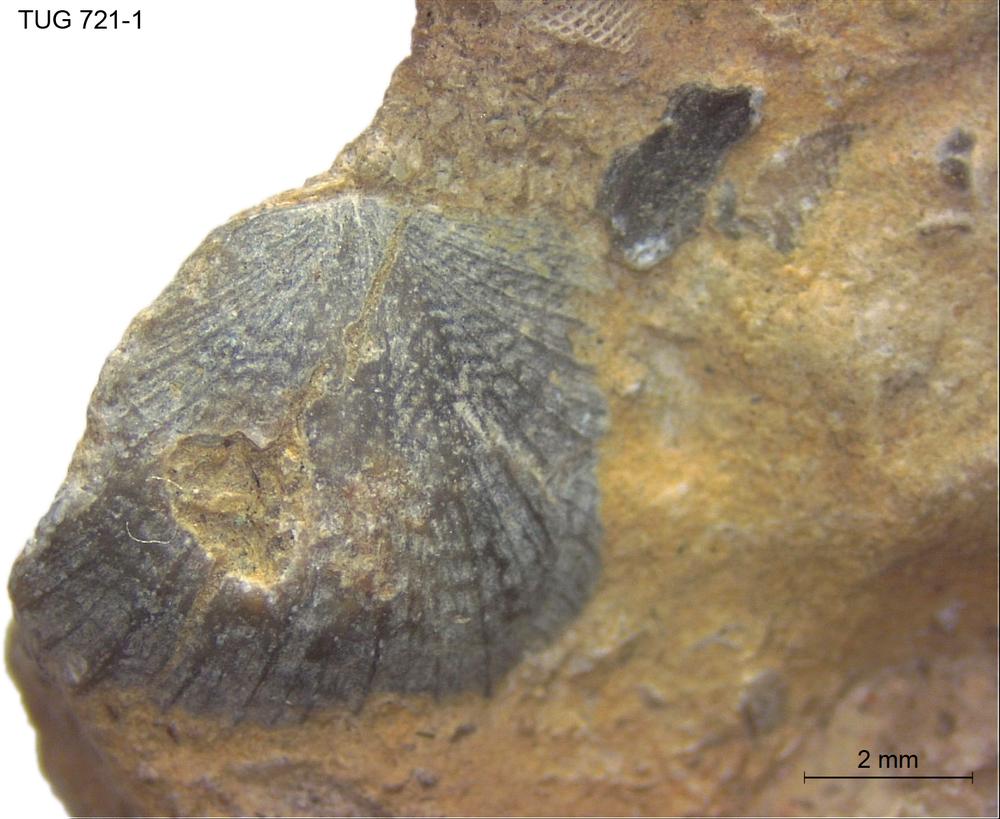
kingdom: Animalia
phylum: Brachiopoda
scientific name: Brachiopoda
